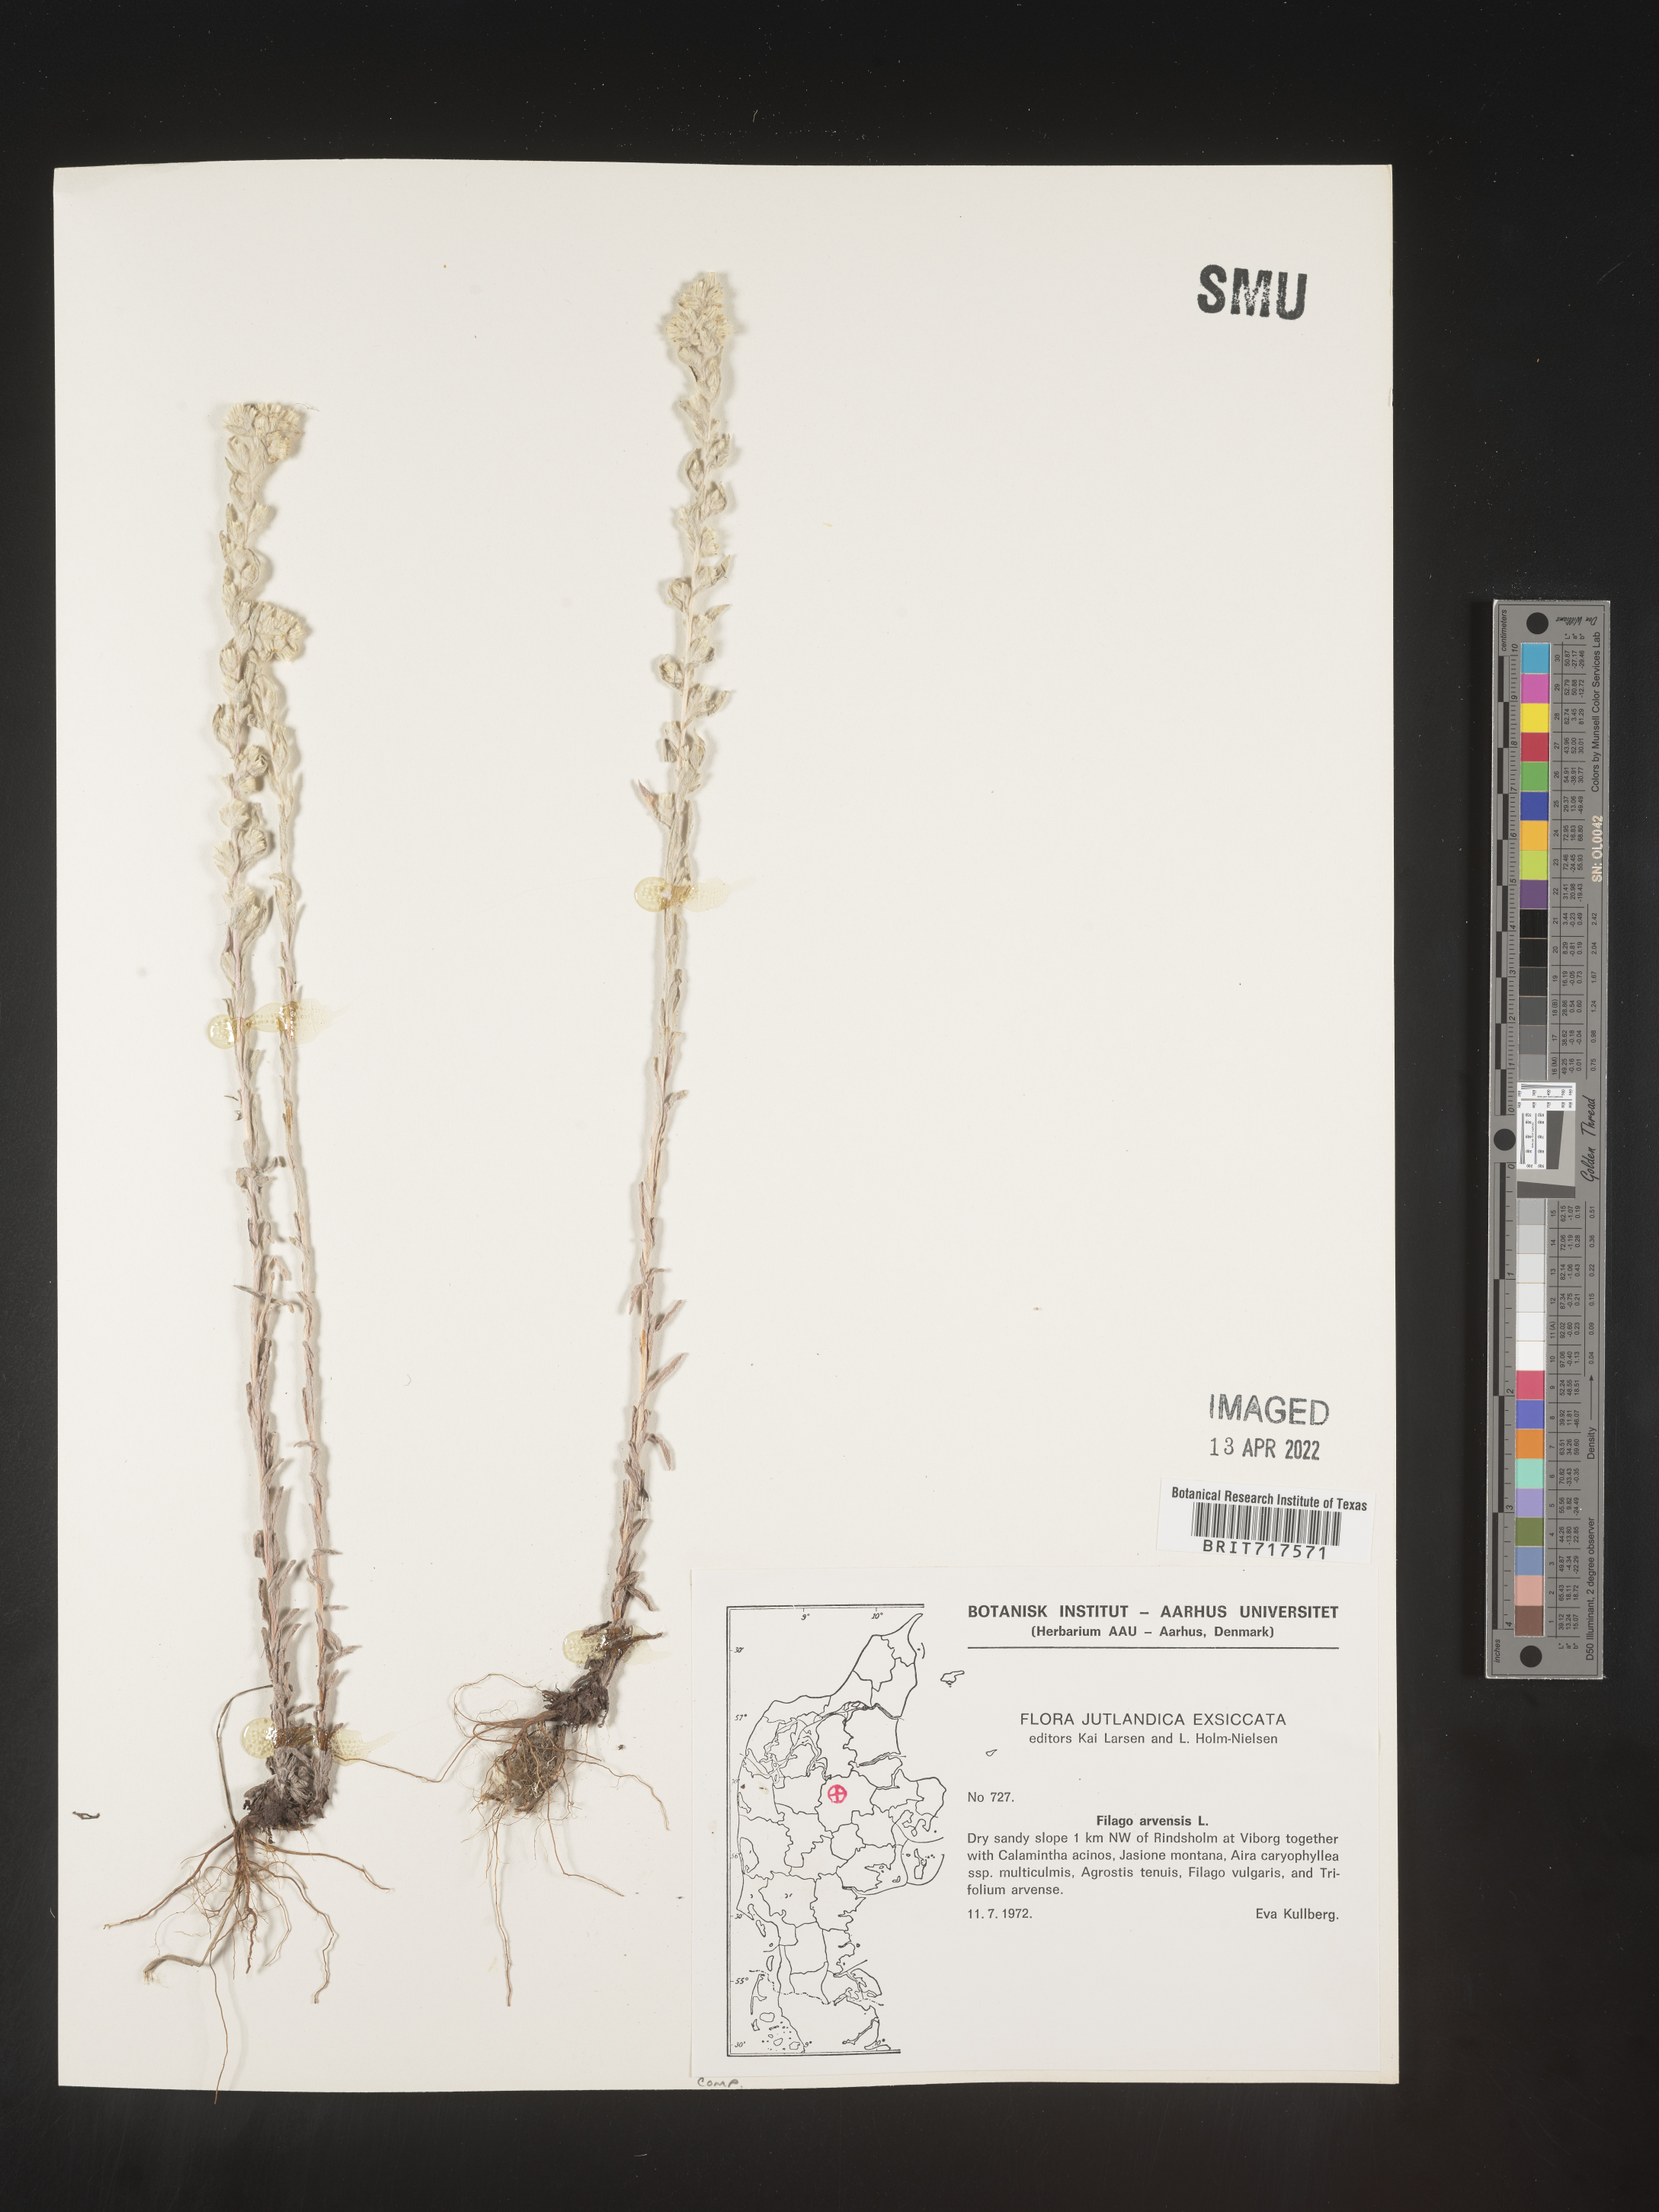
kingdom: Plantae
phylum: Tracheophyta
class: Magnoliopsida
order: Asterales
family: Asteraceae
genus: Filago
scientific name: Filago
